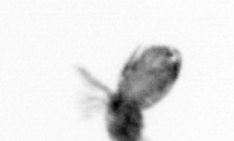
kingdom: Animalia
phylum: Arthropoda
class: Copepoda
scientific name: Copepoda
